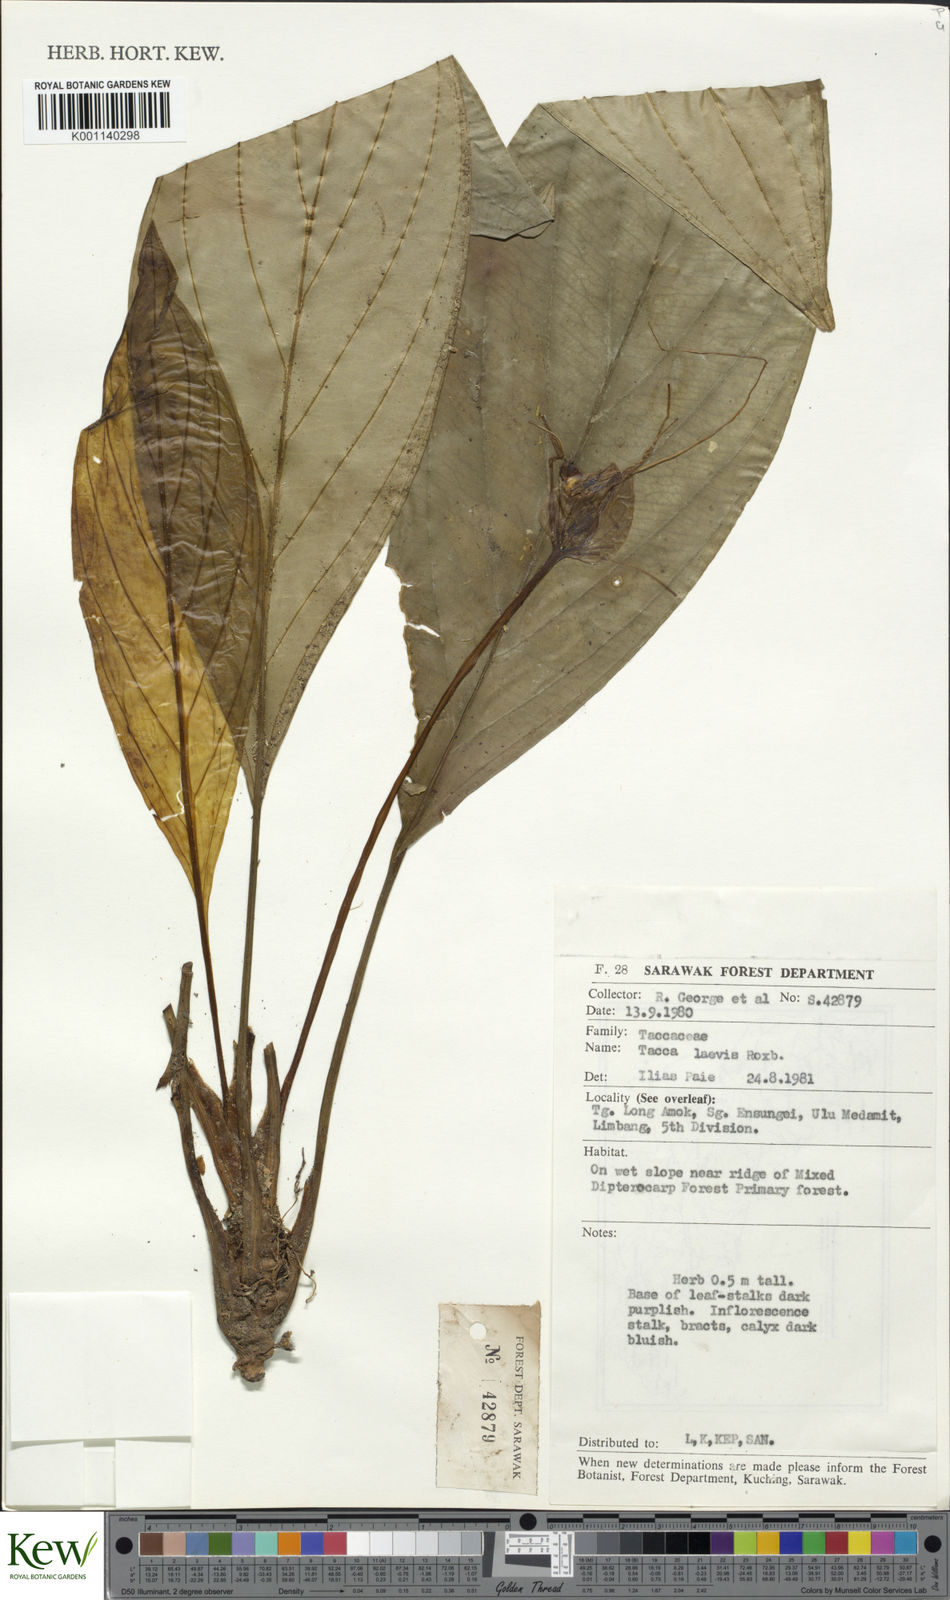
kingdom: Plantae
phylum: Tracheophyta
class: Liliopsida
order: Dioscoreales
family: Dioscoreaceae
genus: Tacca
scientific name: Tacca integrifolia
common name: Batplant
